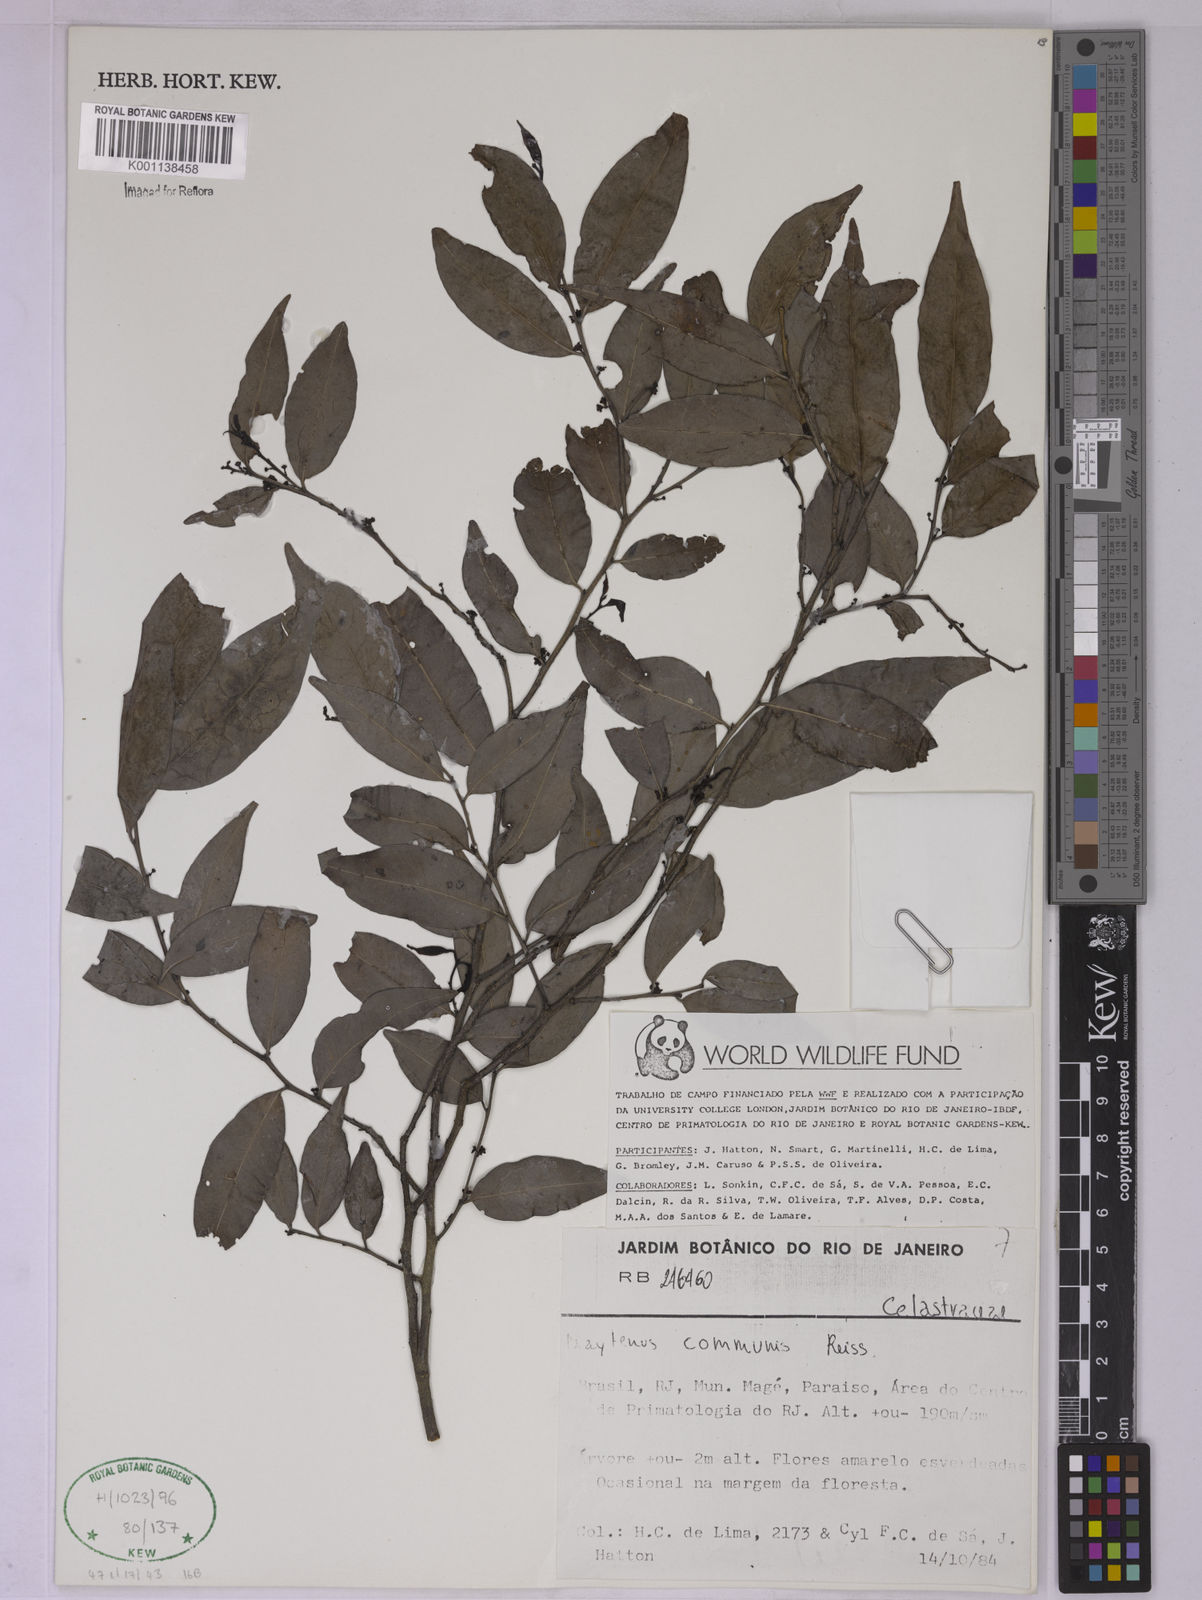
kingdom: Plantae
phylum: Tracheophyta
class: Magnoliopsida
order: Celastrales
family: Celastraceae
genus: Monteverdia
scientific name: Monteverdia communis
